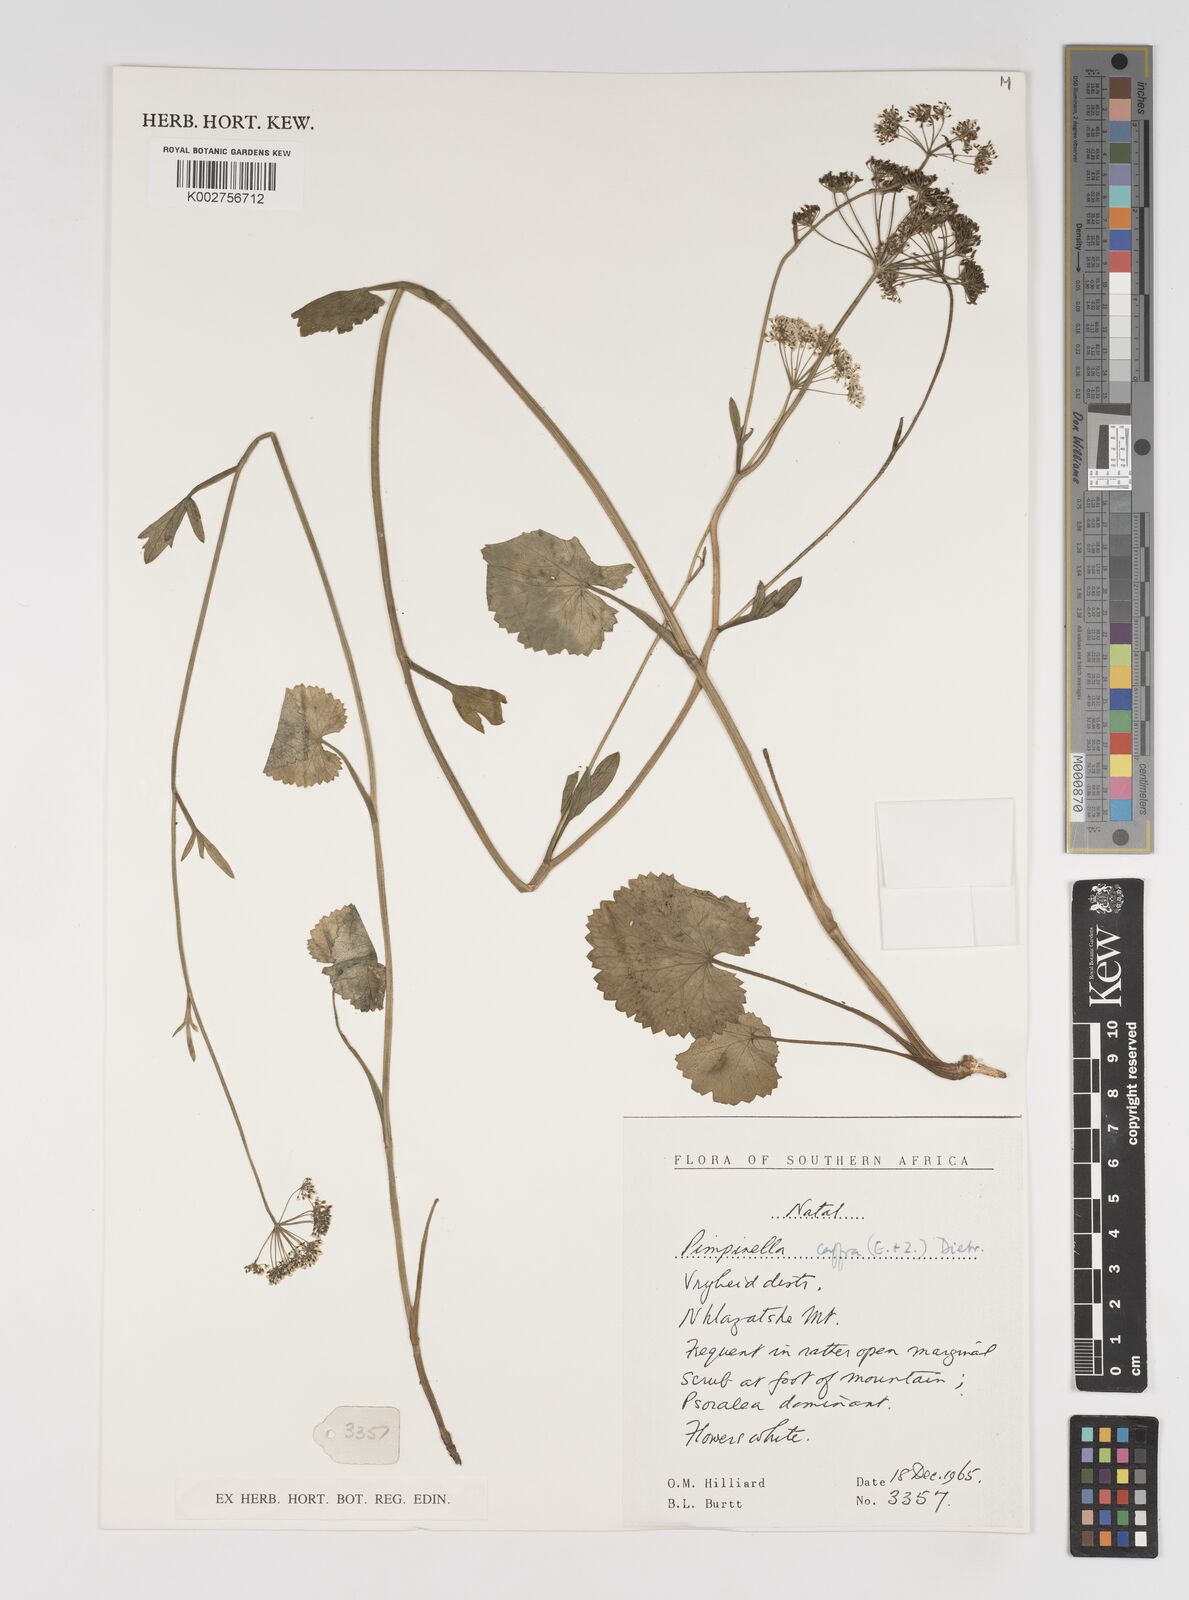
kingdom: Plantae
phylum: Tracheophyta
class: Magnoliopsida
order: Apiales
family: Apiaceae
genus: Pimpinella
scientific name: Pimpinella
